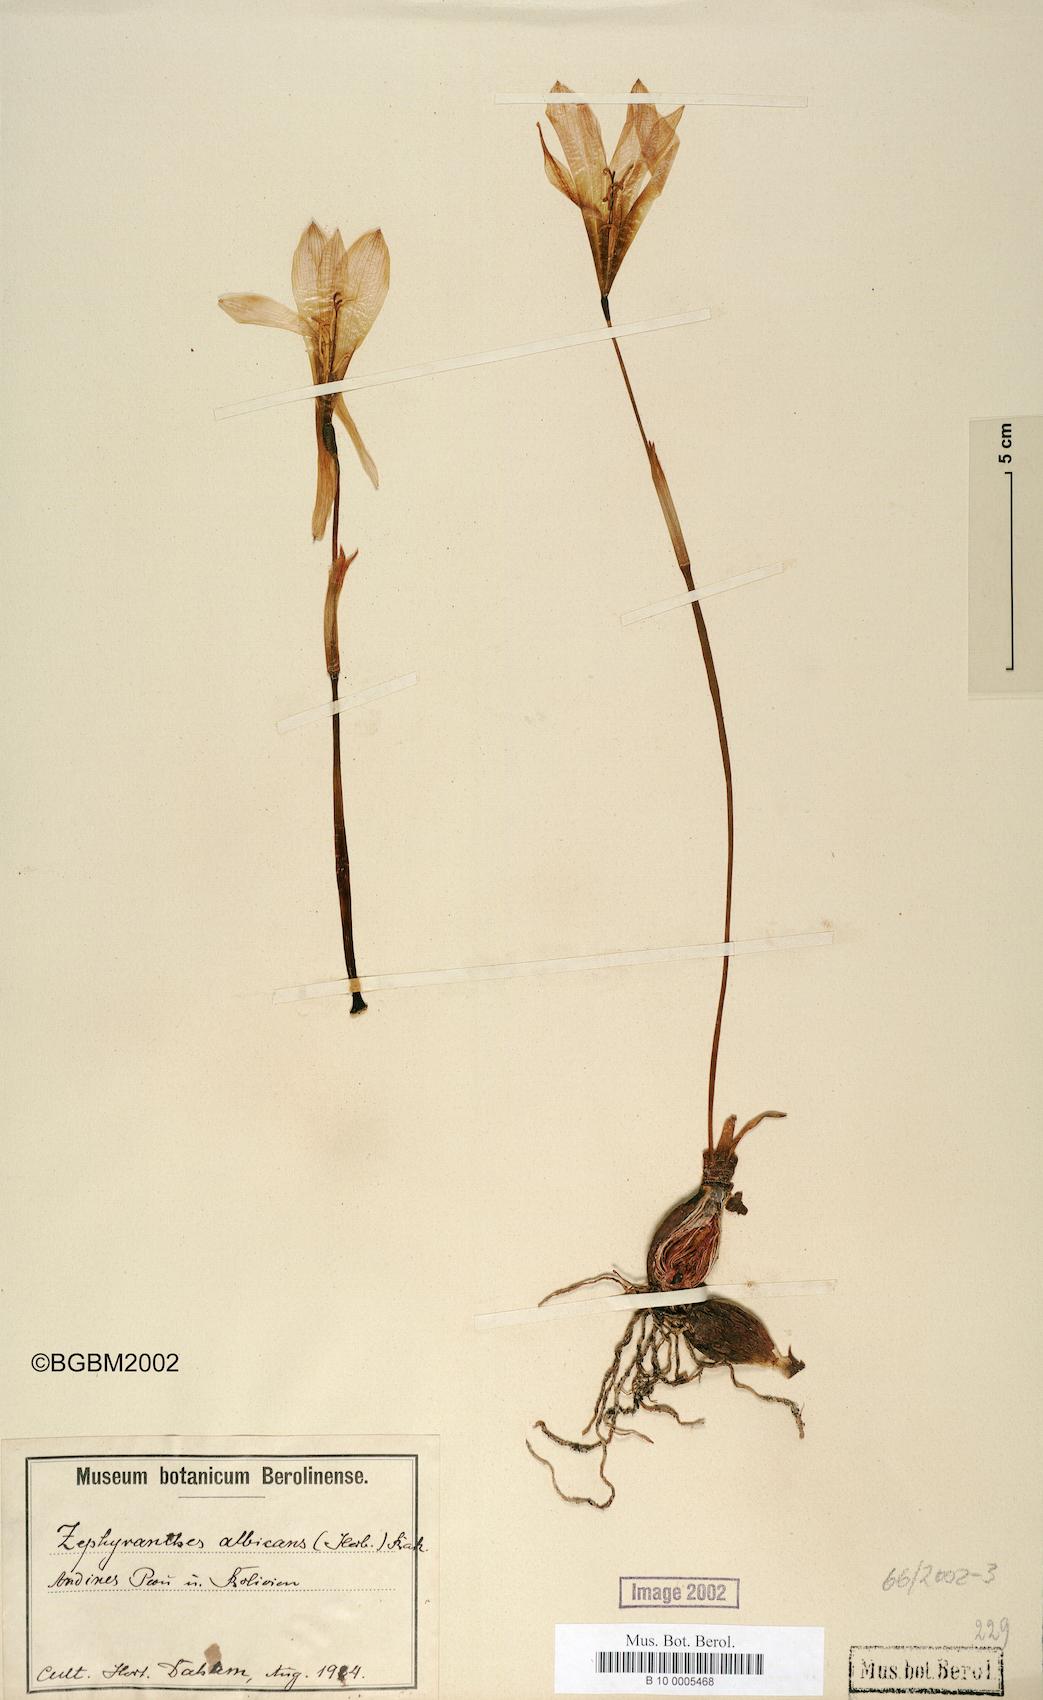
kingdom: Plantae
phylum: Tracheophyta
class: Liliopsida
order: Asparagales
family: Amaryllidaceae
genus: Pyrolirion
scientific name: Pyrolirion albicans
